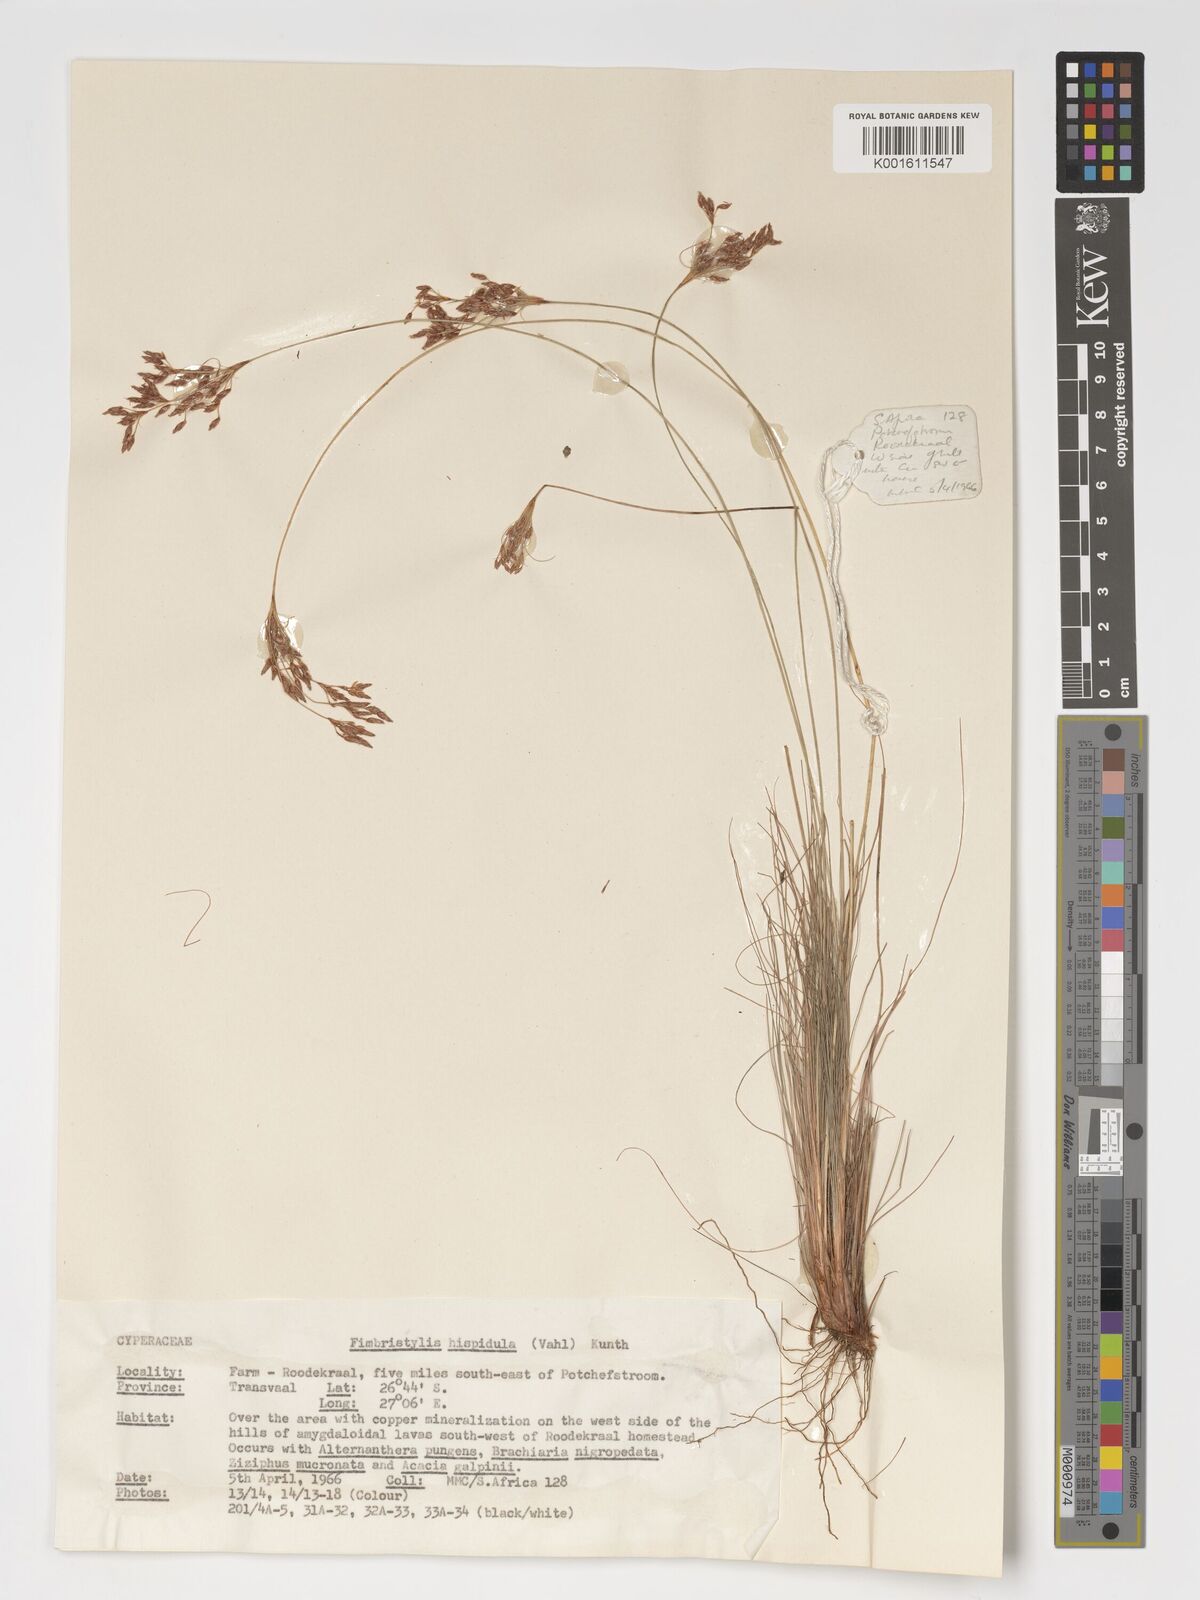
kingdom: Plantae
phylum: Tracheophyta
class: Liliopsida
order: Poales
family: Cyperaceae
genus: Bulbostylis
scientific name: Bulbostylis hispidula
